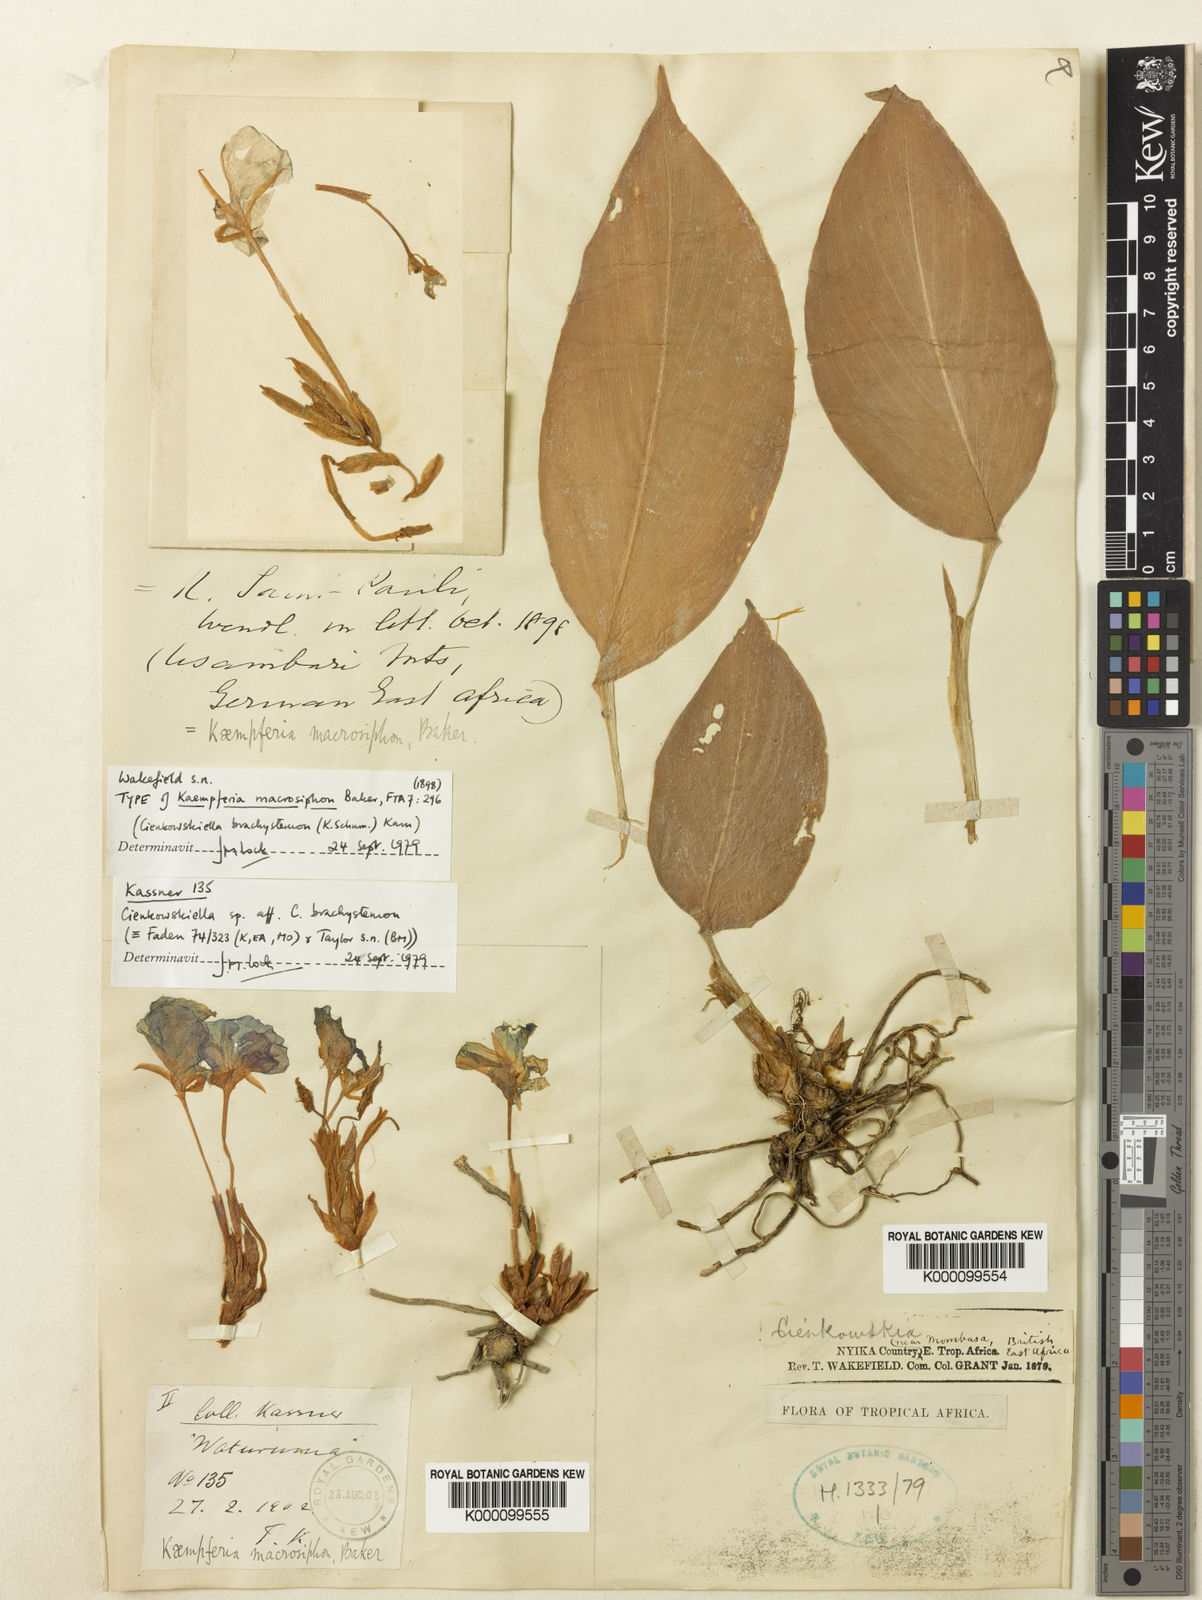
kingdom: Plantae
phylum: Tracheophyta
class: Liliopsida
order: Zingiberales
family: Zingiberaceae
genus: Siphonochilus
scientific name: Siphonochilus brachystemon
